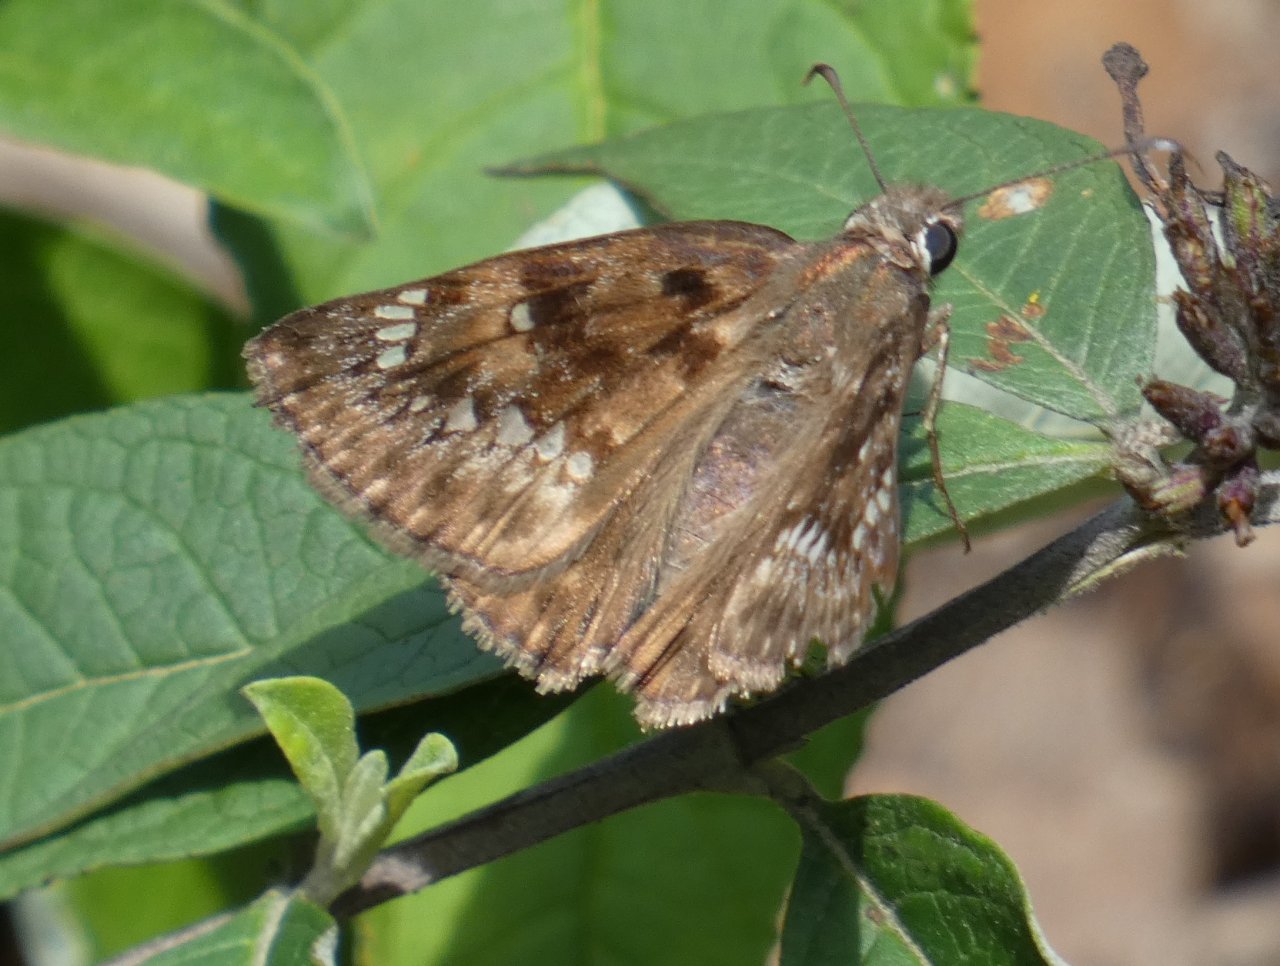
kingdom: Animalia
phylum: Arthropoda
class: Insecta
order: Lepidoptera
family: Hesperiidae
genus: Gesta
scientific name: Gesta
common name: Horace's Duskywing
